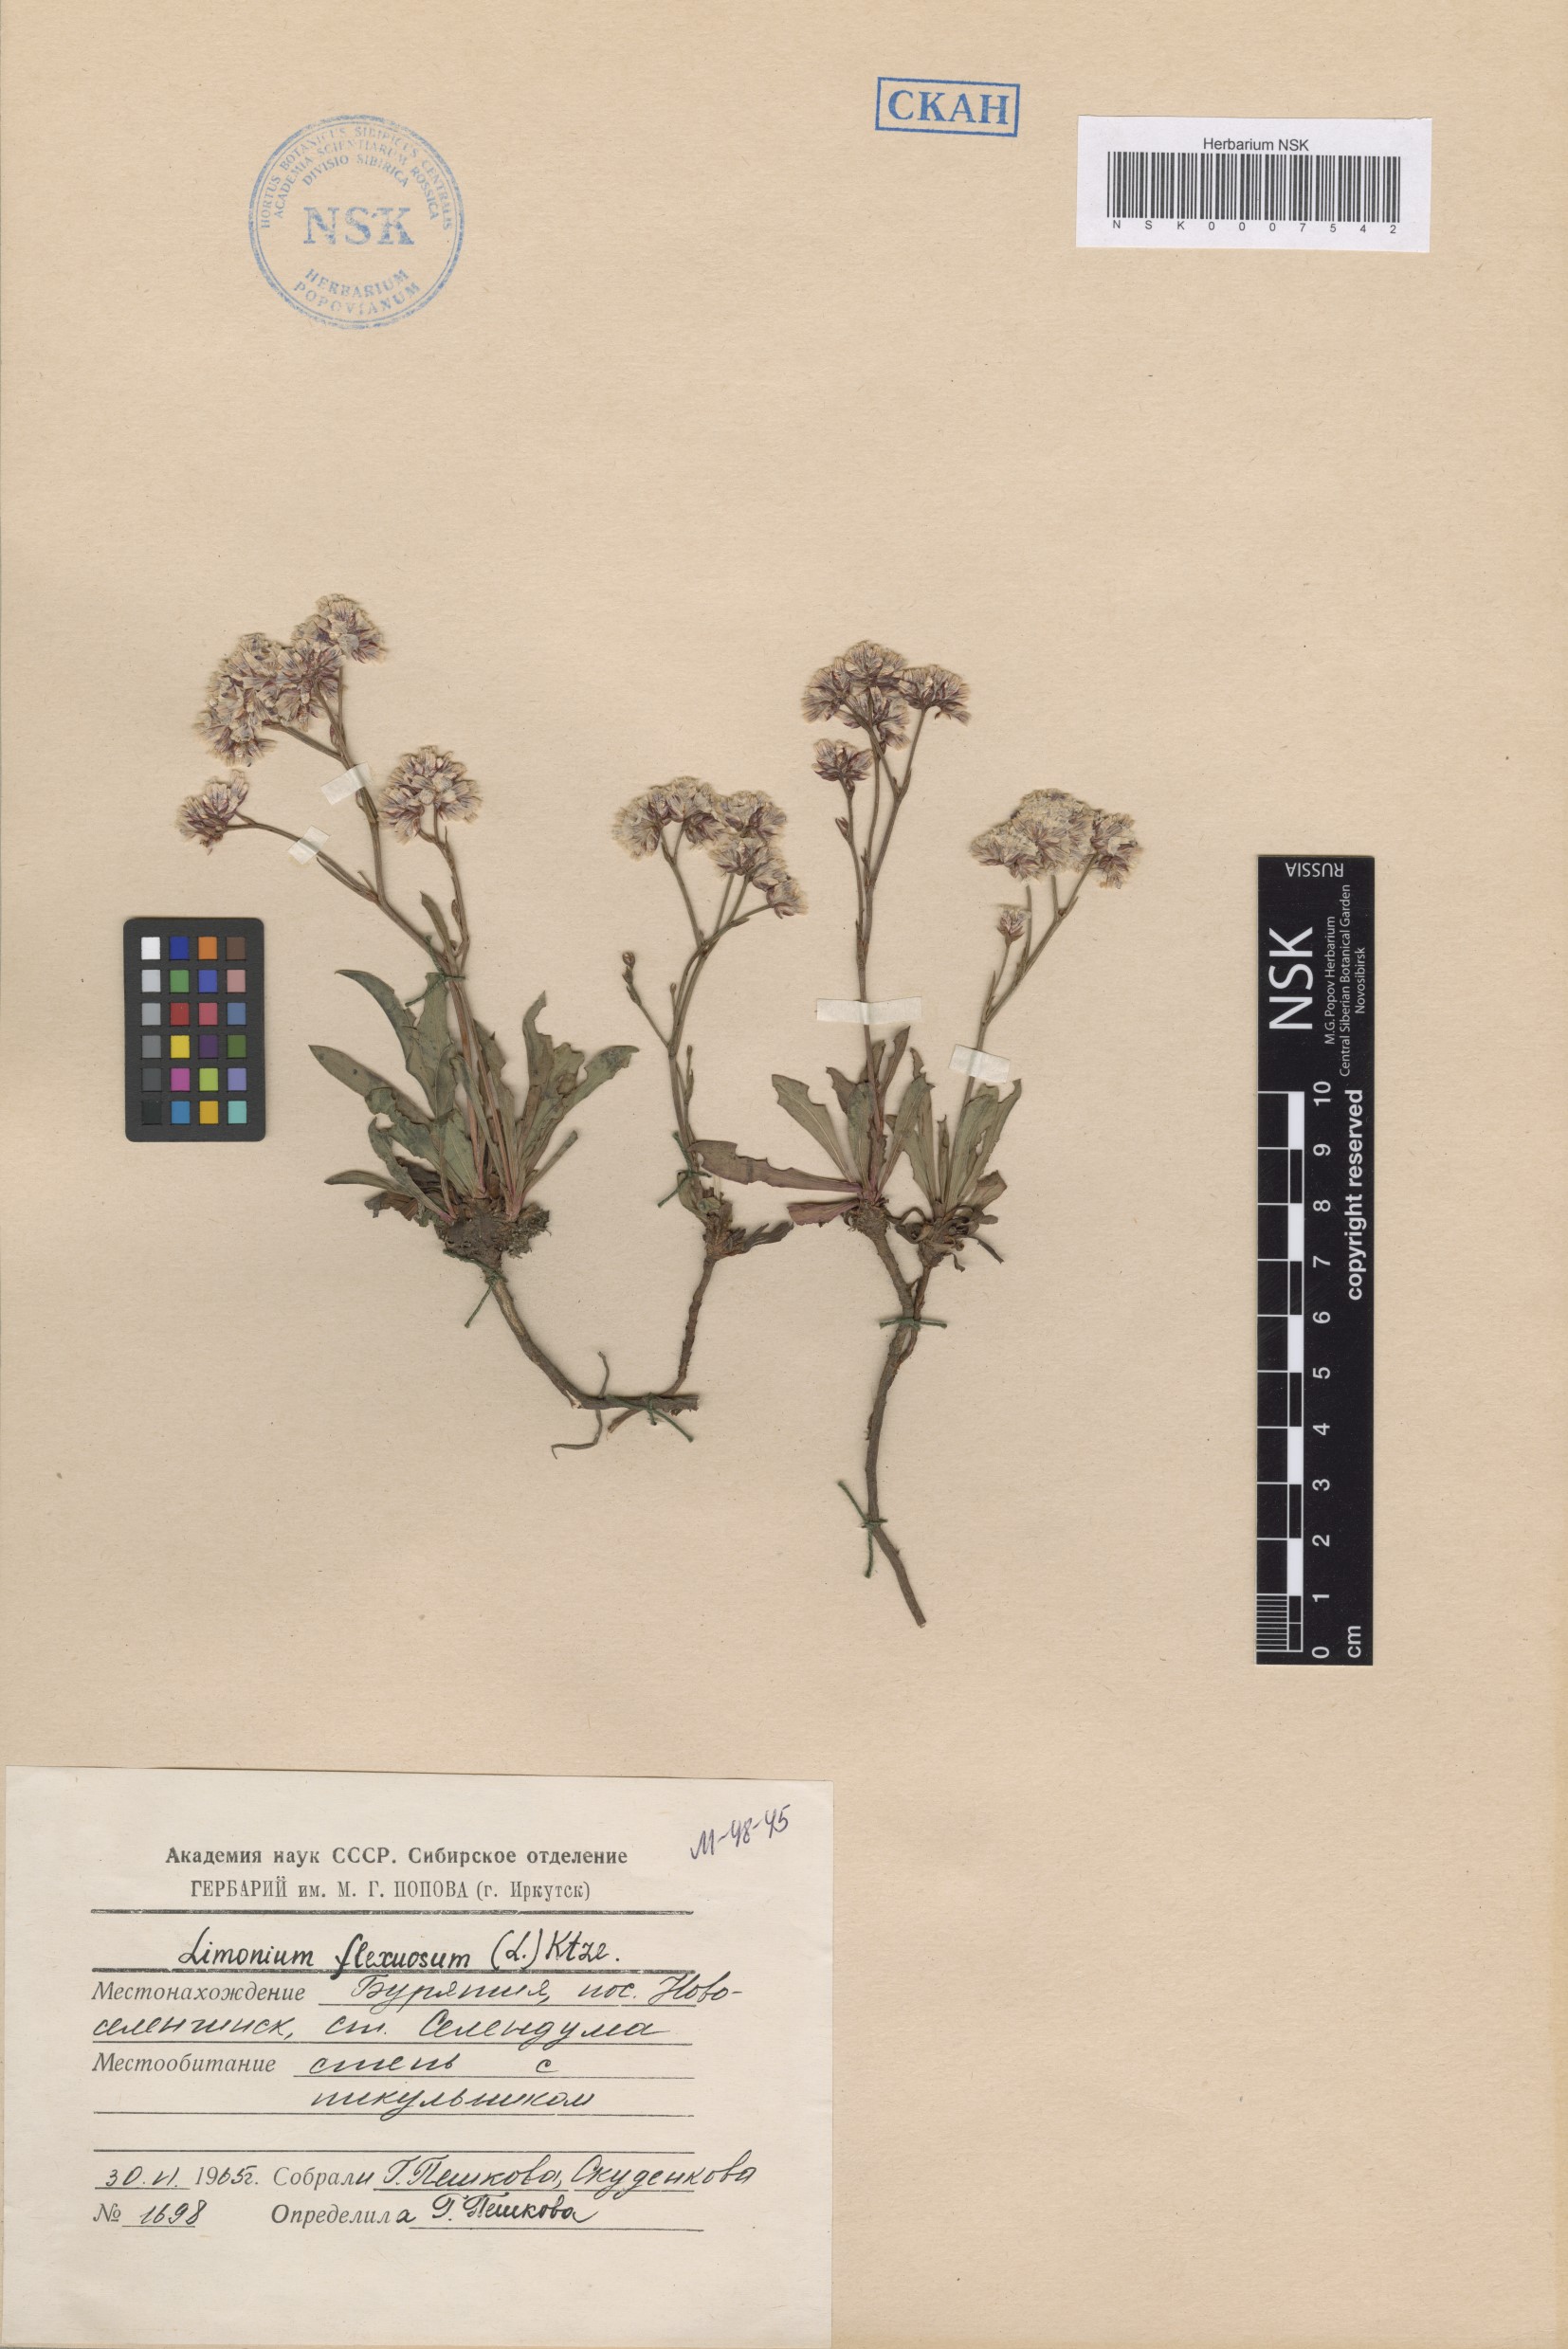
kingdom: Plantae
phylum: Tracheophyta
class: Magnoliopsida
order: Caryophyllales
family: Plumbaginaceae
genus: Limonium
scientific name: Limonium flexuosum
